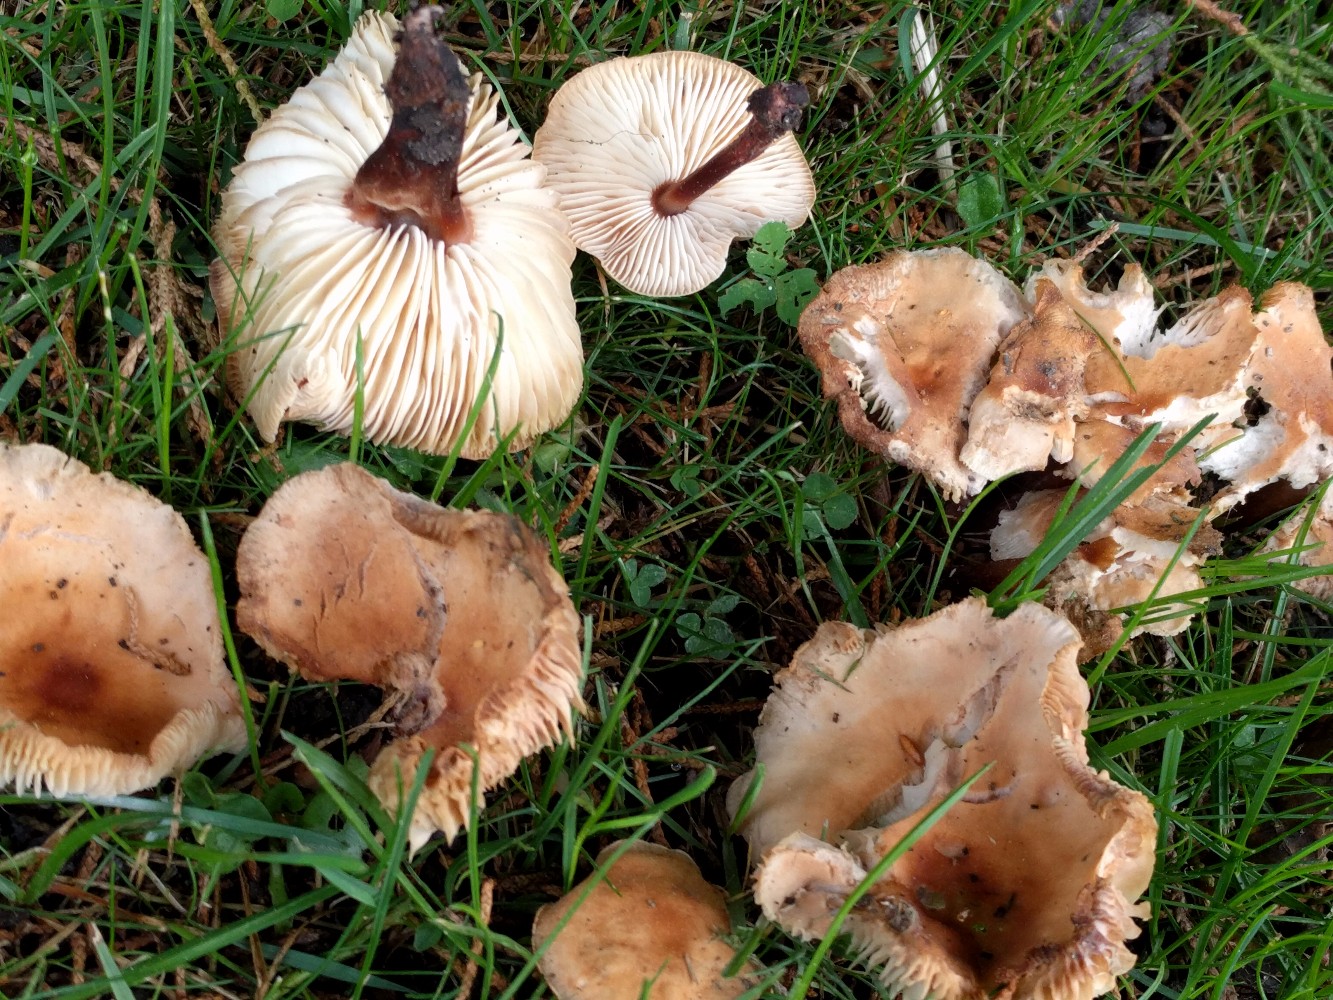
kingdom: Fungi
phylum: Basidiomycota
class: Agaricomycetes
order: Agaricales
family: Omphalotaceae
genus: Gymnopus
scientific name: Gymnopus erythropus
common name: rødstokket fladhat
